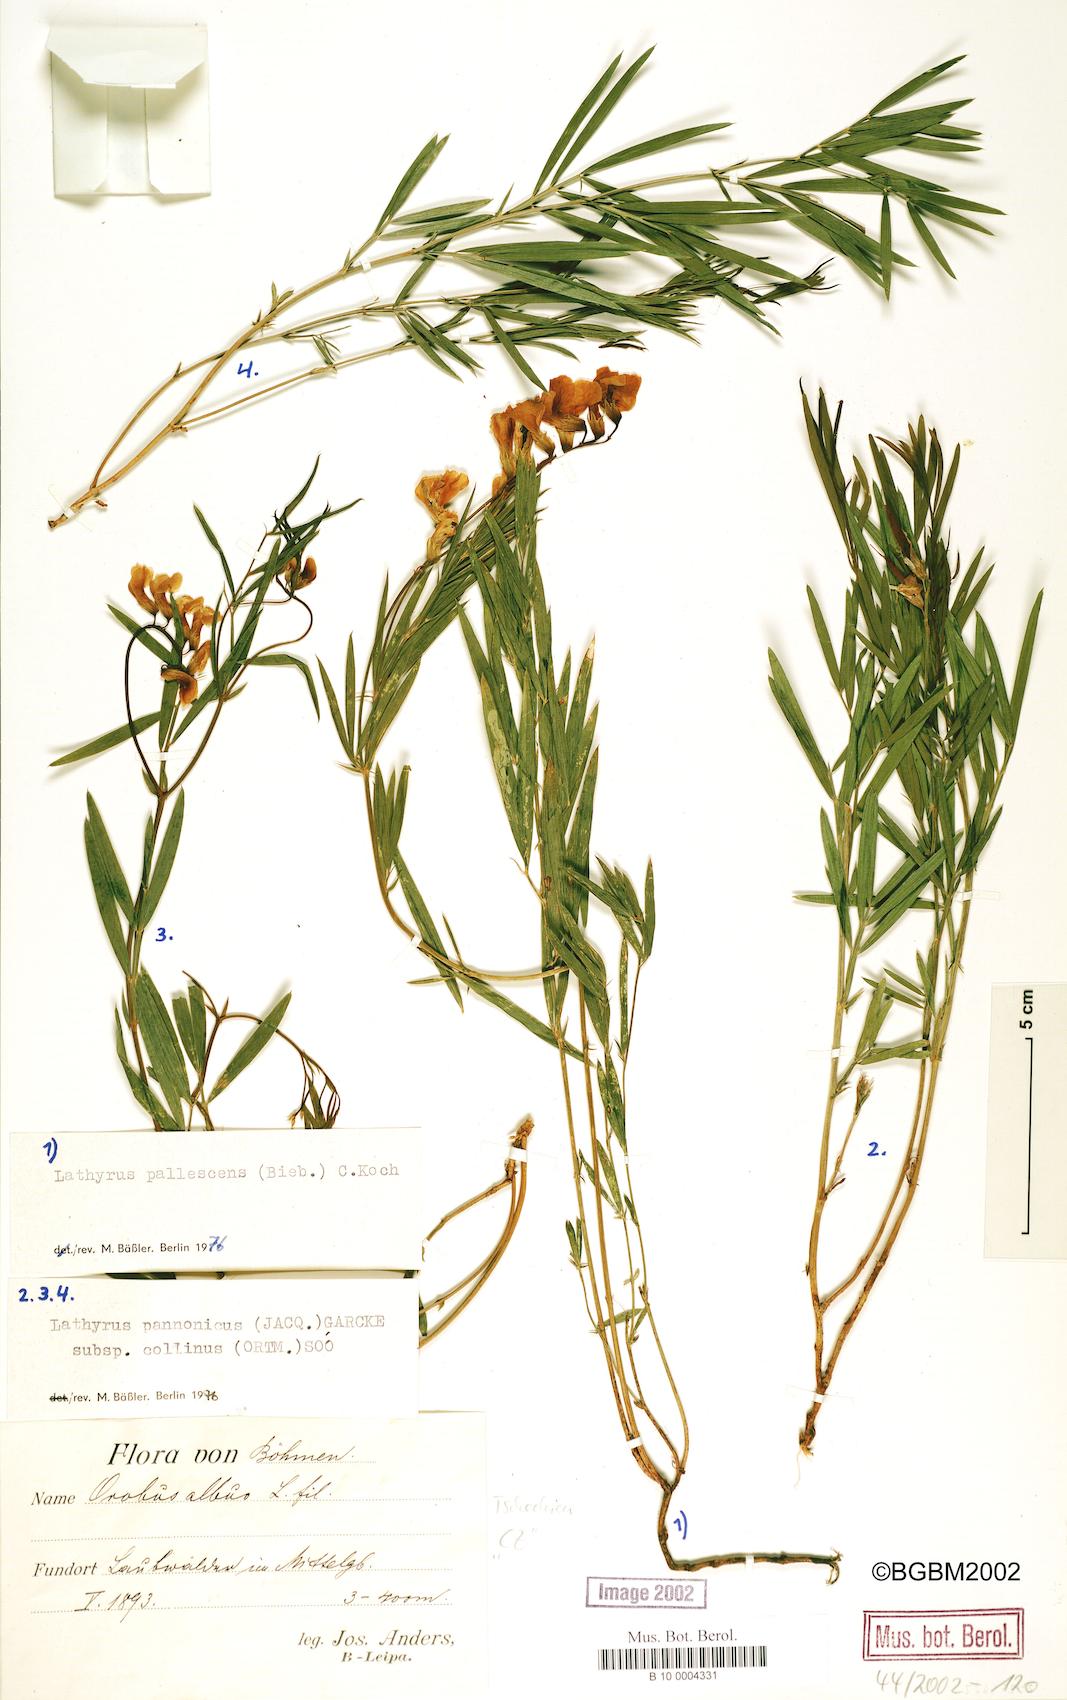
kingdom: Plantae
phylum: Tracheophyta
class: Magnoliopsida
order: Fabales
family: Fabaceae
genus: Lathyrus
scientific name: Lathyrus pallescens
